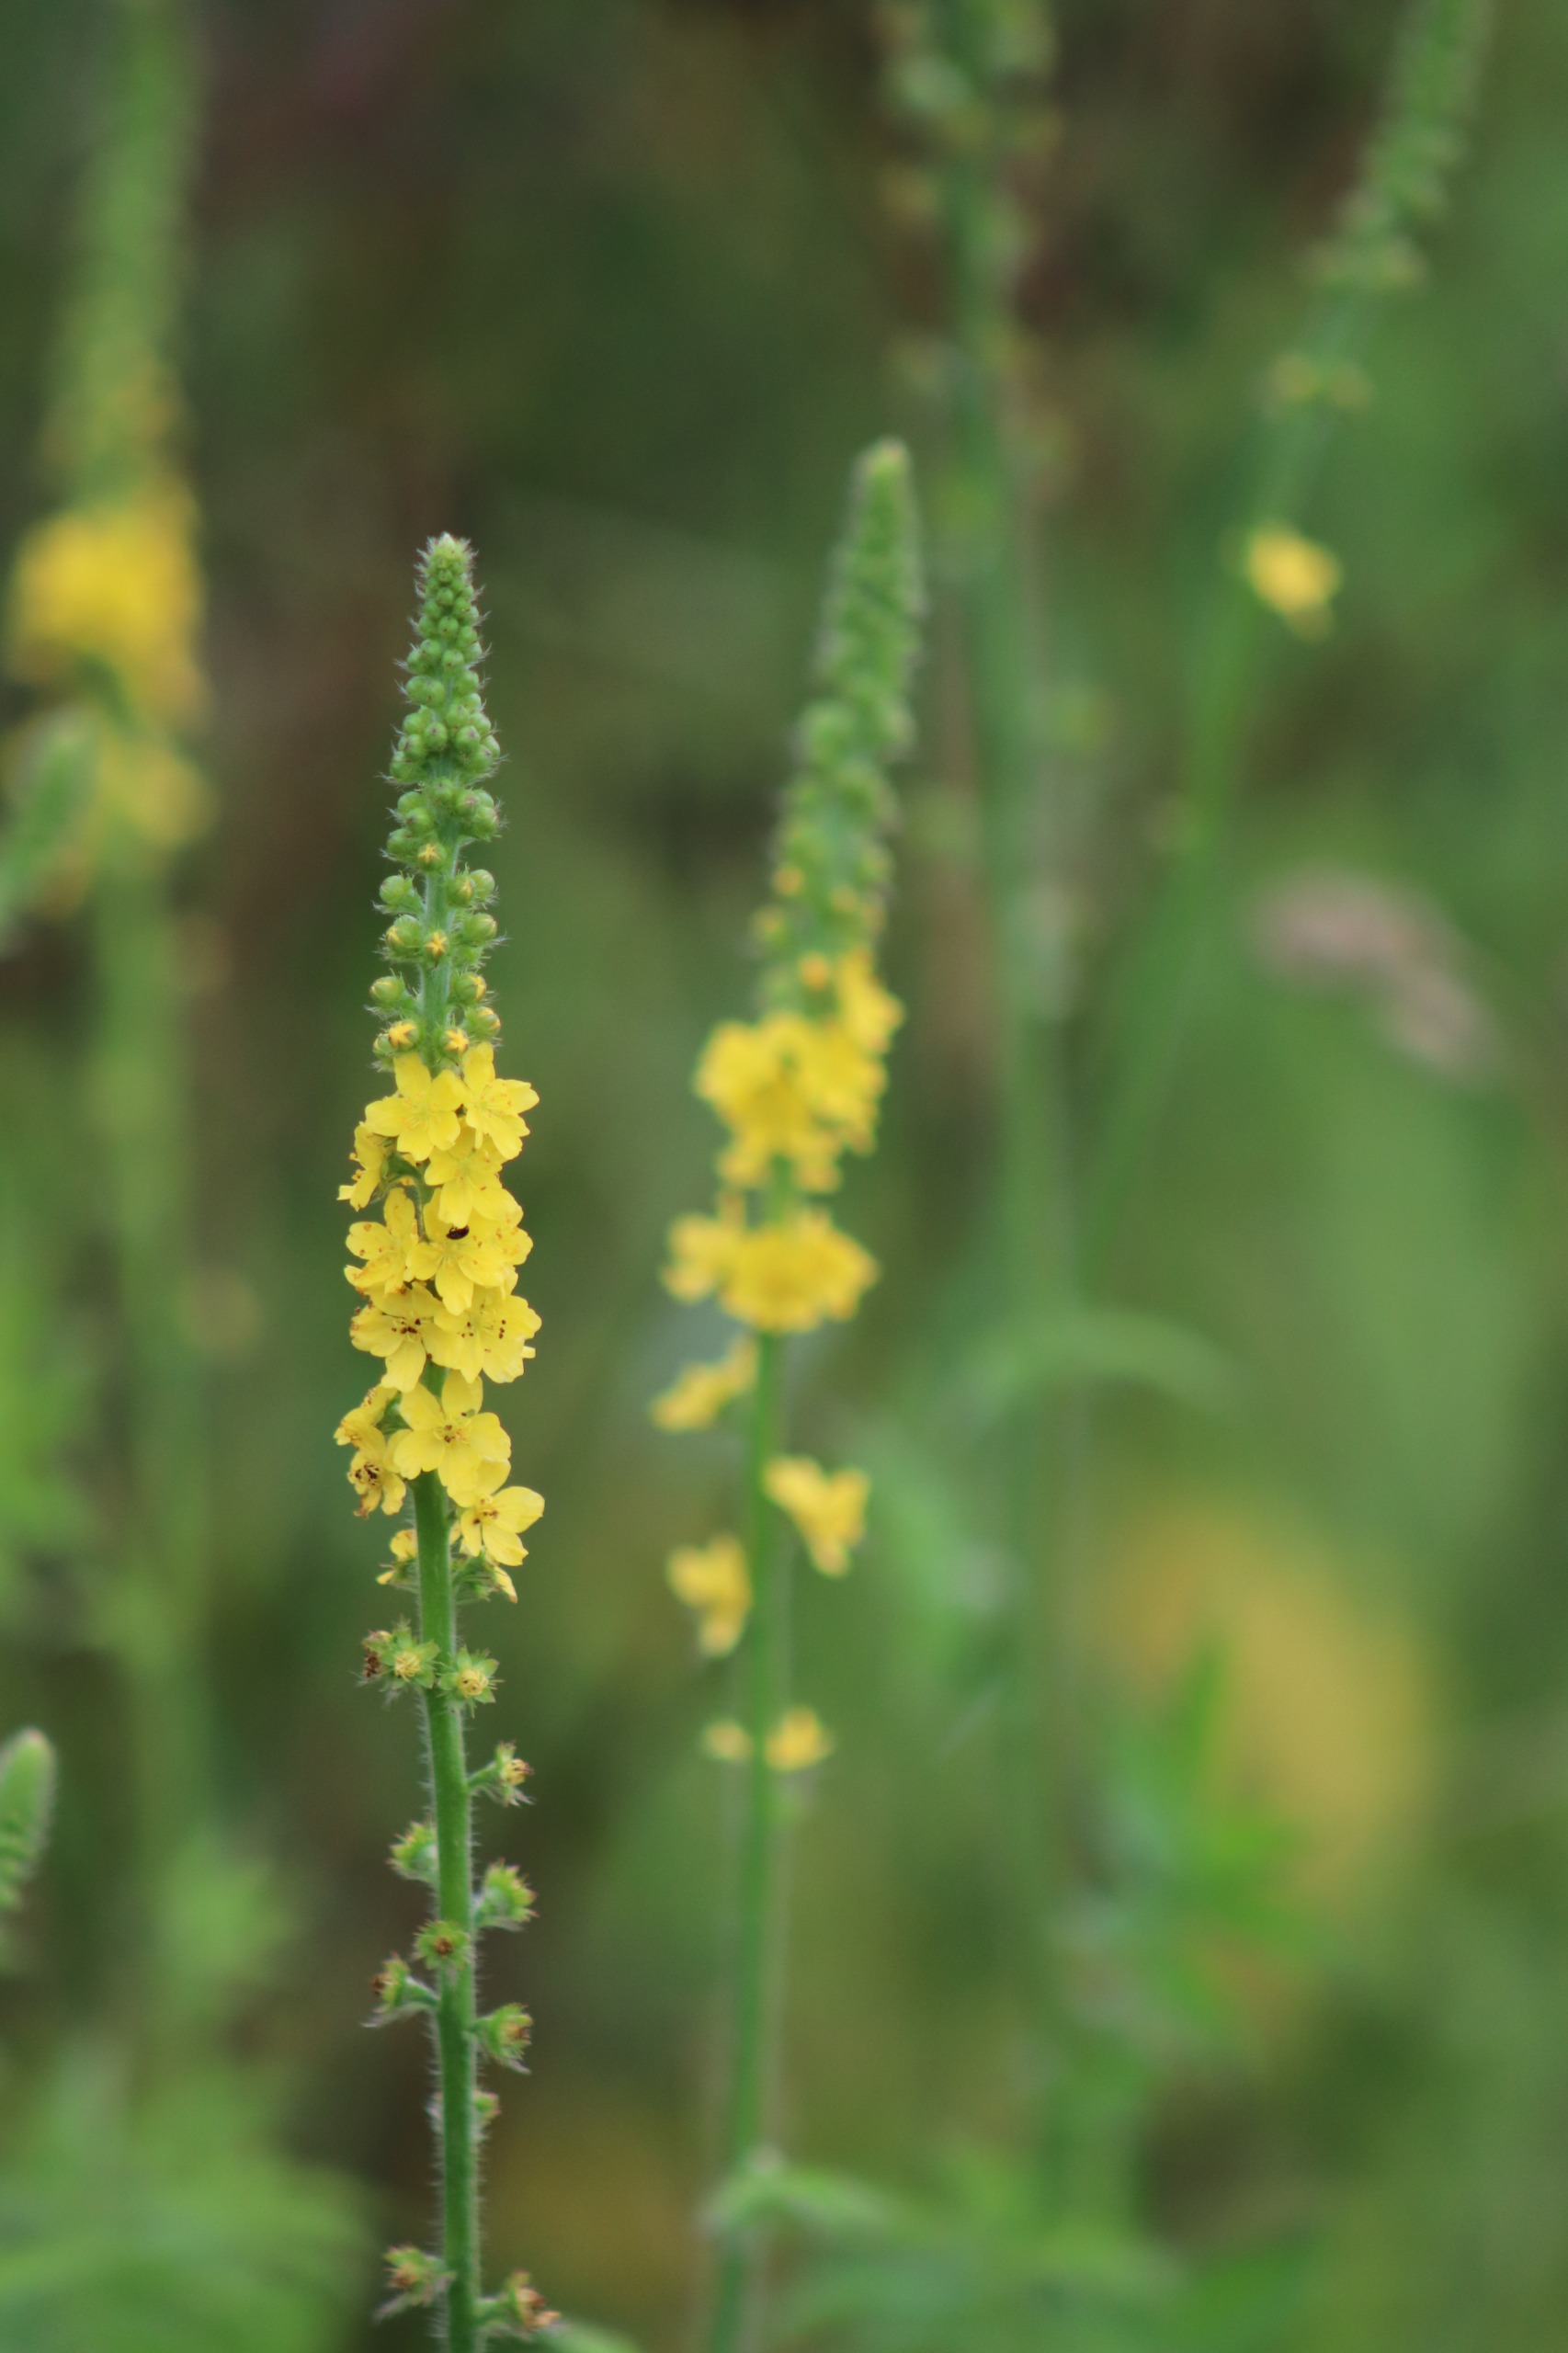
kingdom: Plantae
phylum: Tracheophyta
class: Magnoliopsida
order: Rosales
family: Rosaceae
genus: Agrimonia
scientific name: Agrimonia eupatoria
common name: Almindelig agermåne
